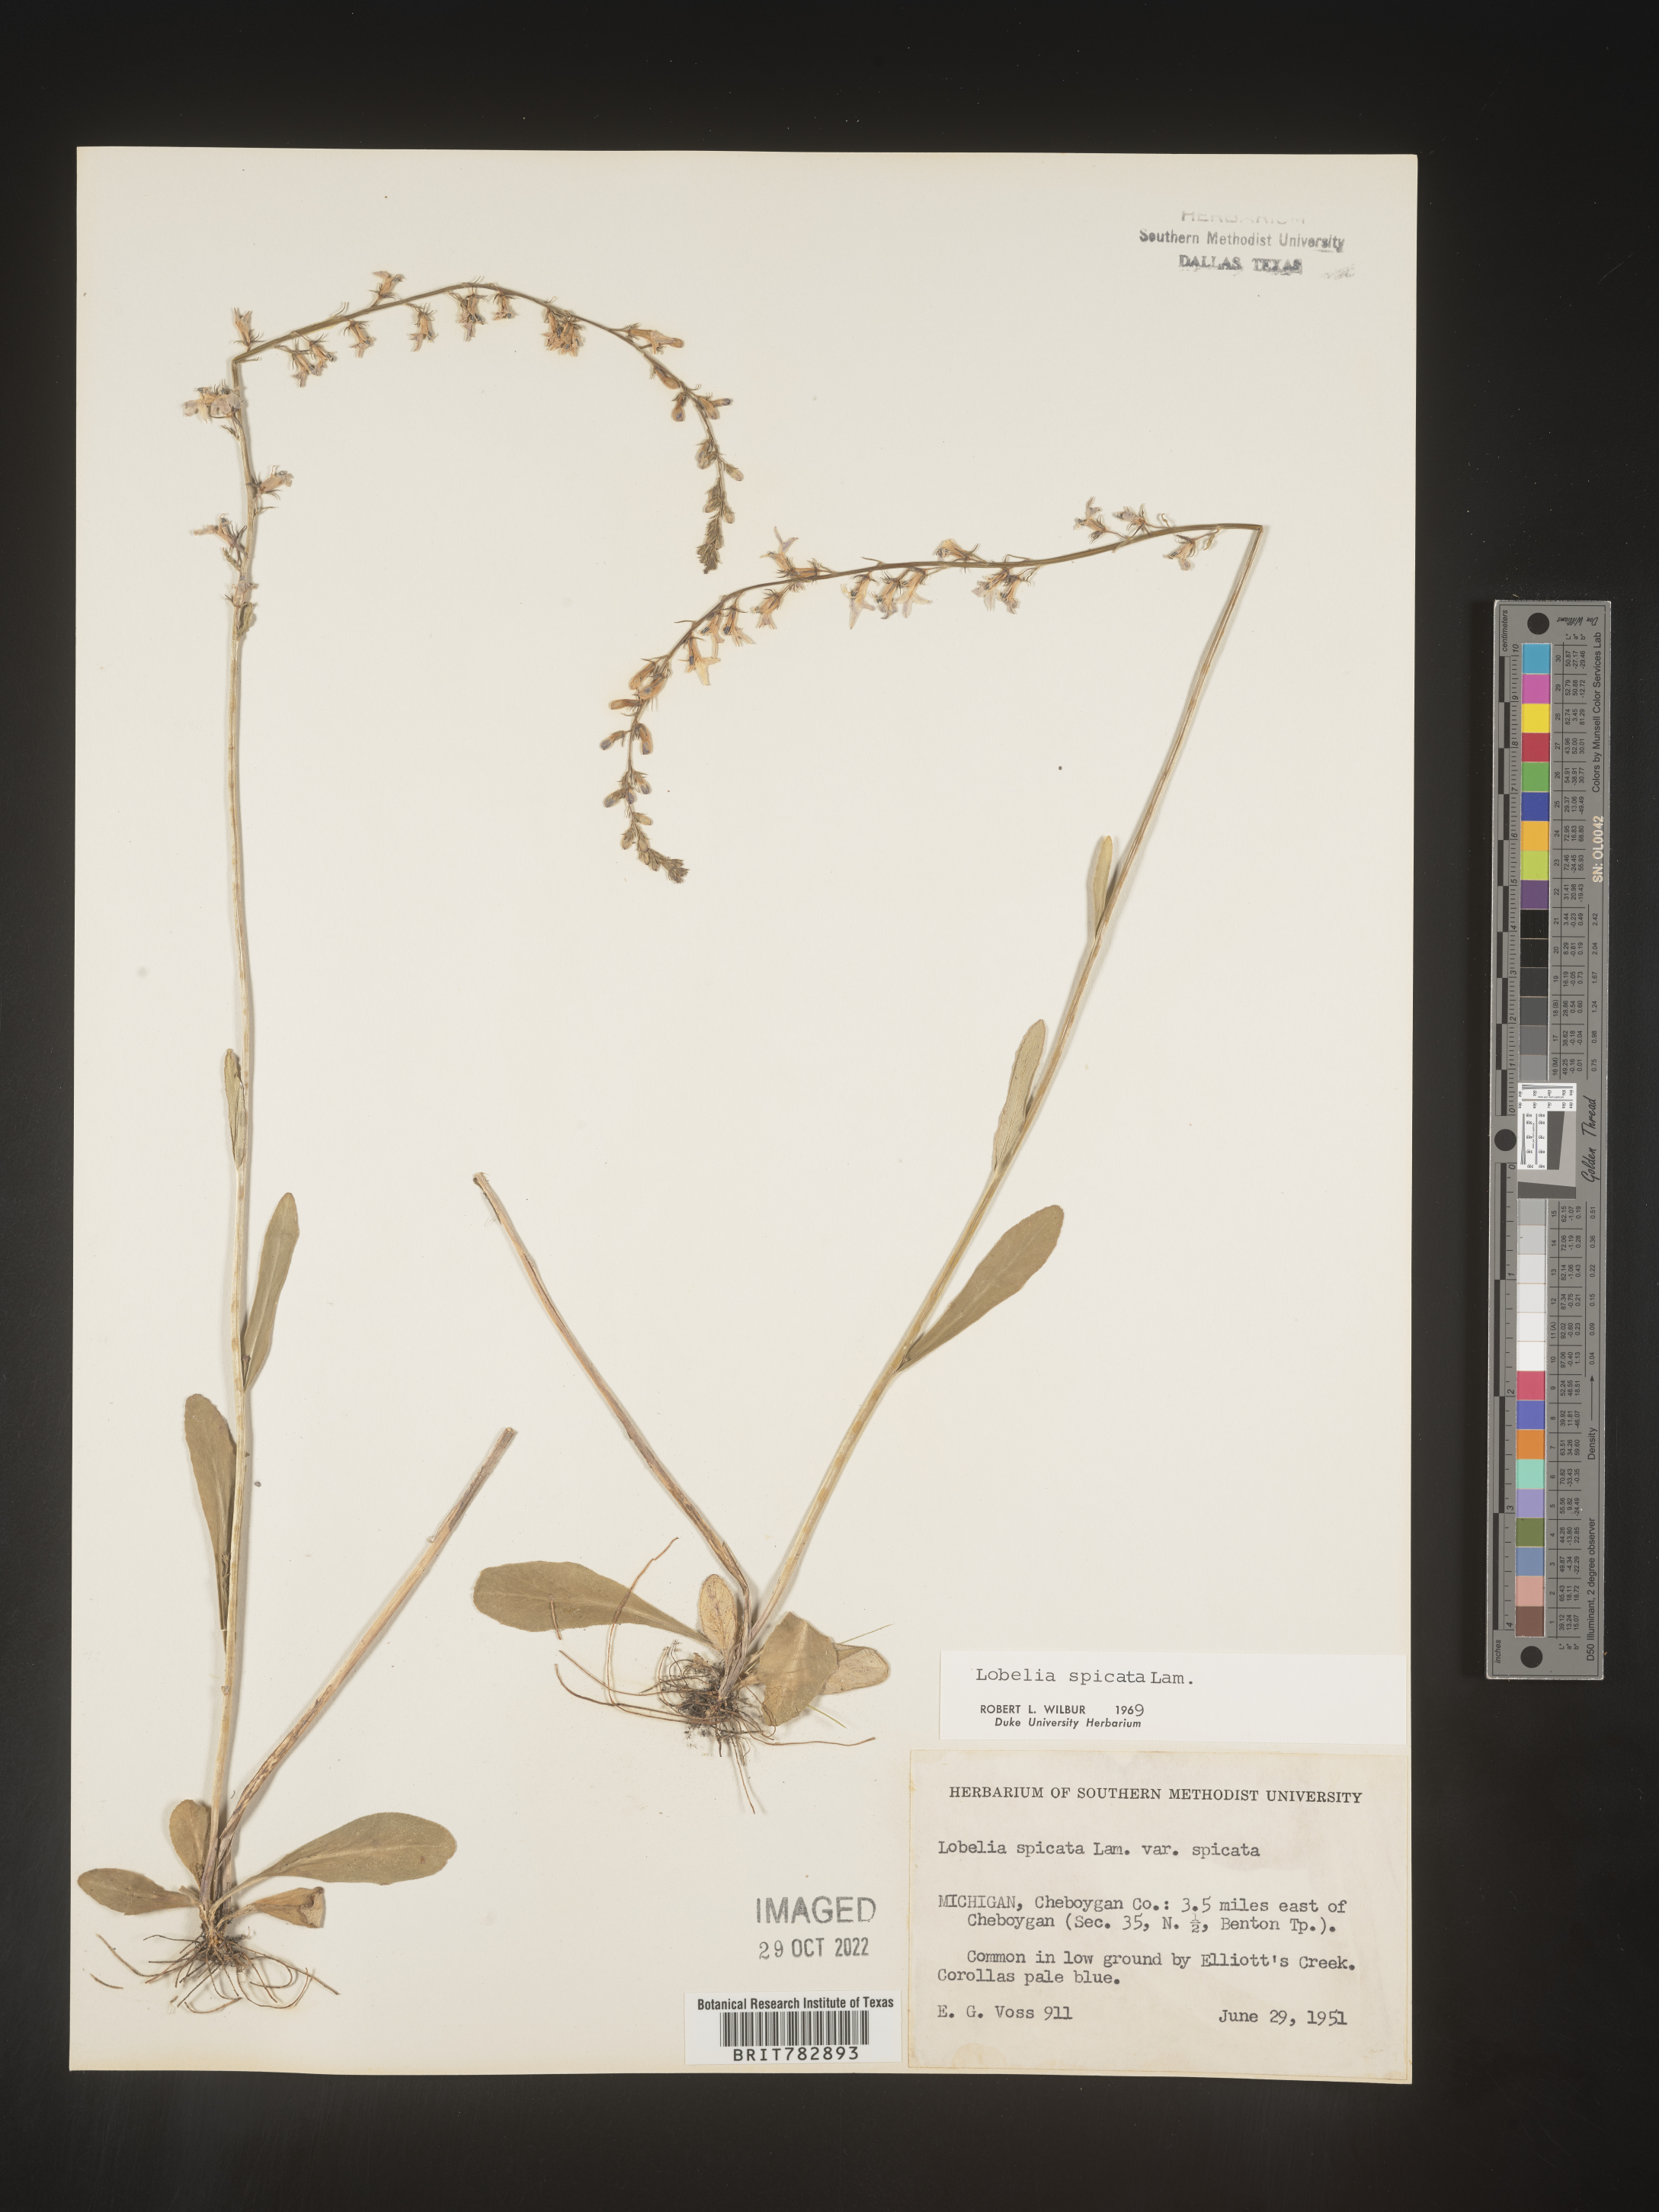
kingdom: Plantae
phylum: Tracheophyta
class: Magnoliopsida
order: Asterales
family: Campanulaceae
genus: Lobelia
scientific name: Lobelia spicata
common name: Pale-spike lobelia
